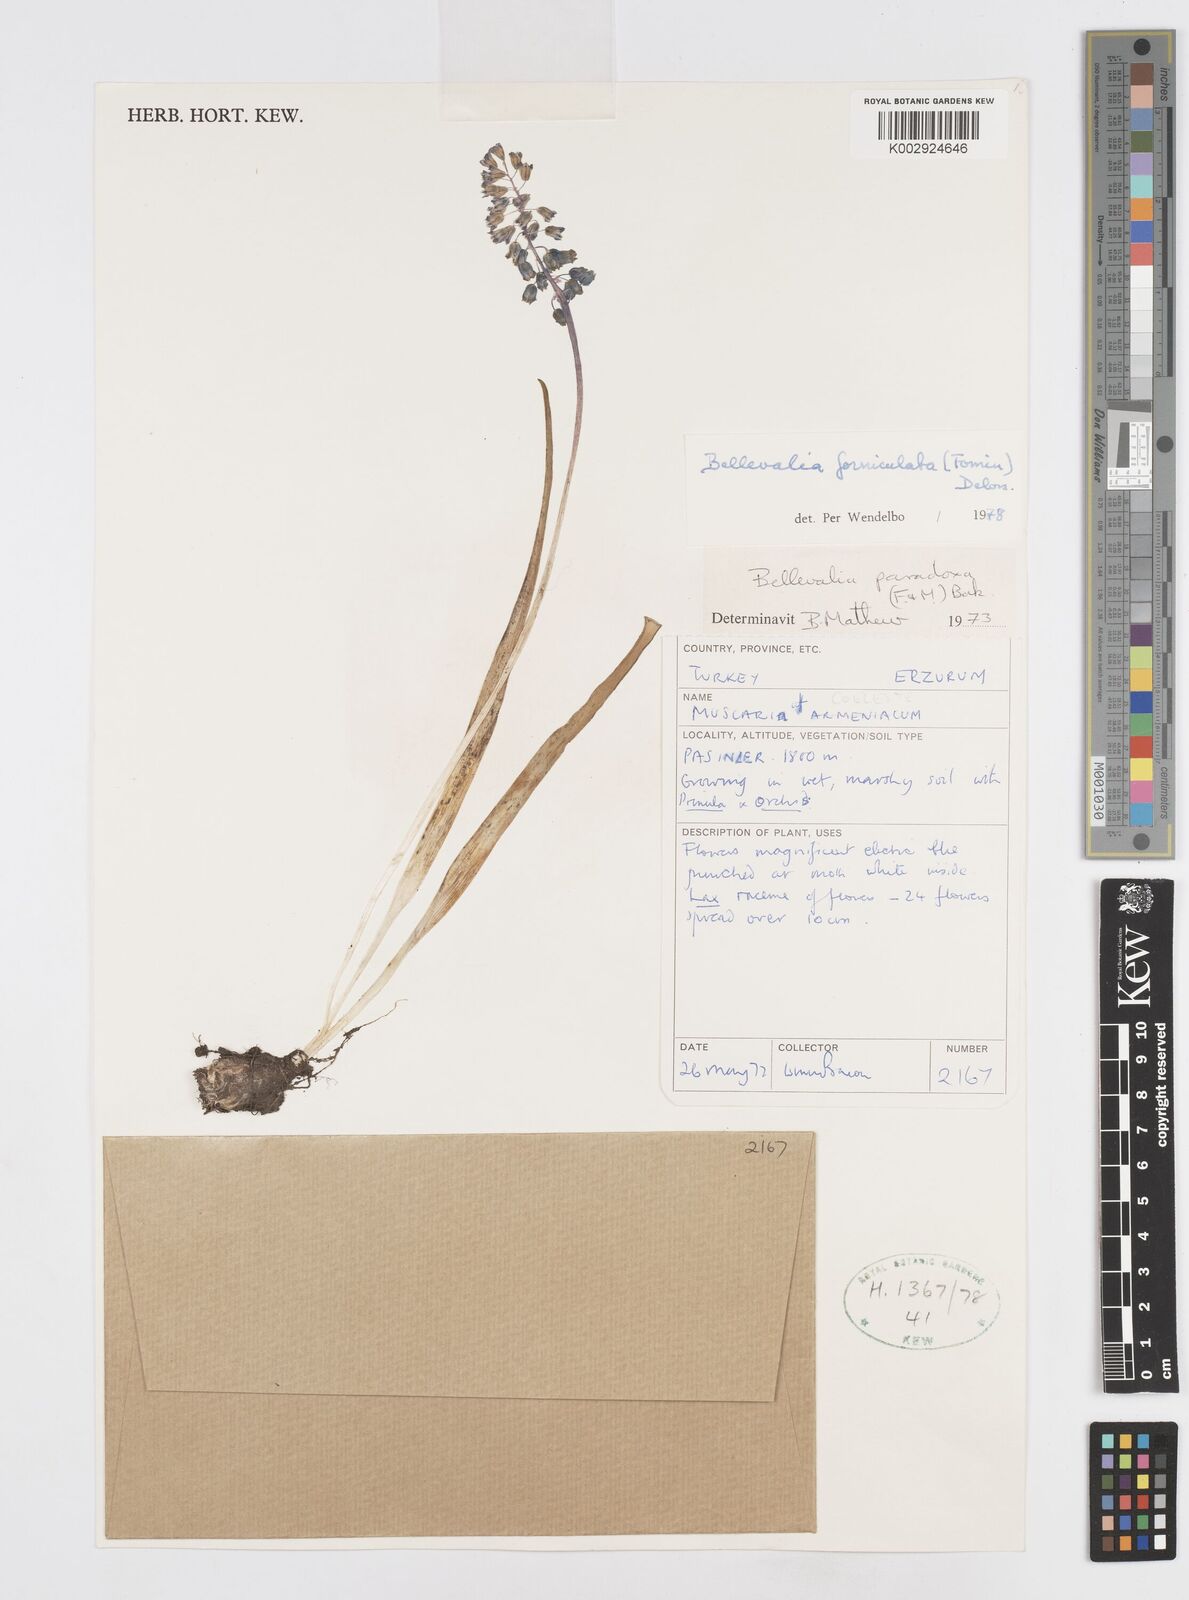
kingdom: Plantae
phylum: Tracheophyta
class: Liliopsida
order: Asparagales
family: Asparagaceae
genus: Muscari
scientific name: Muscari forniculatum
